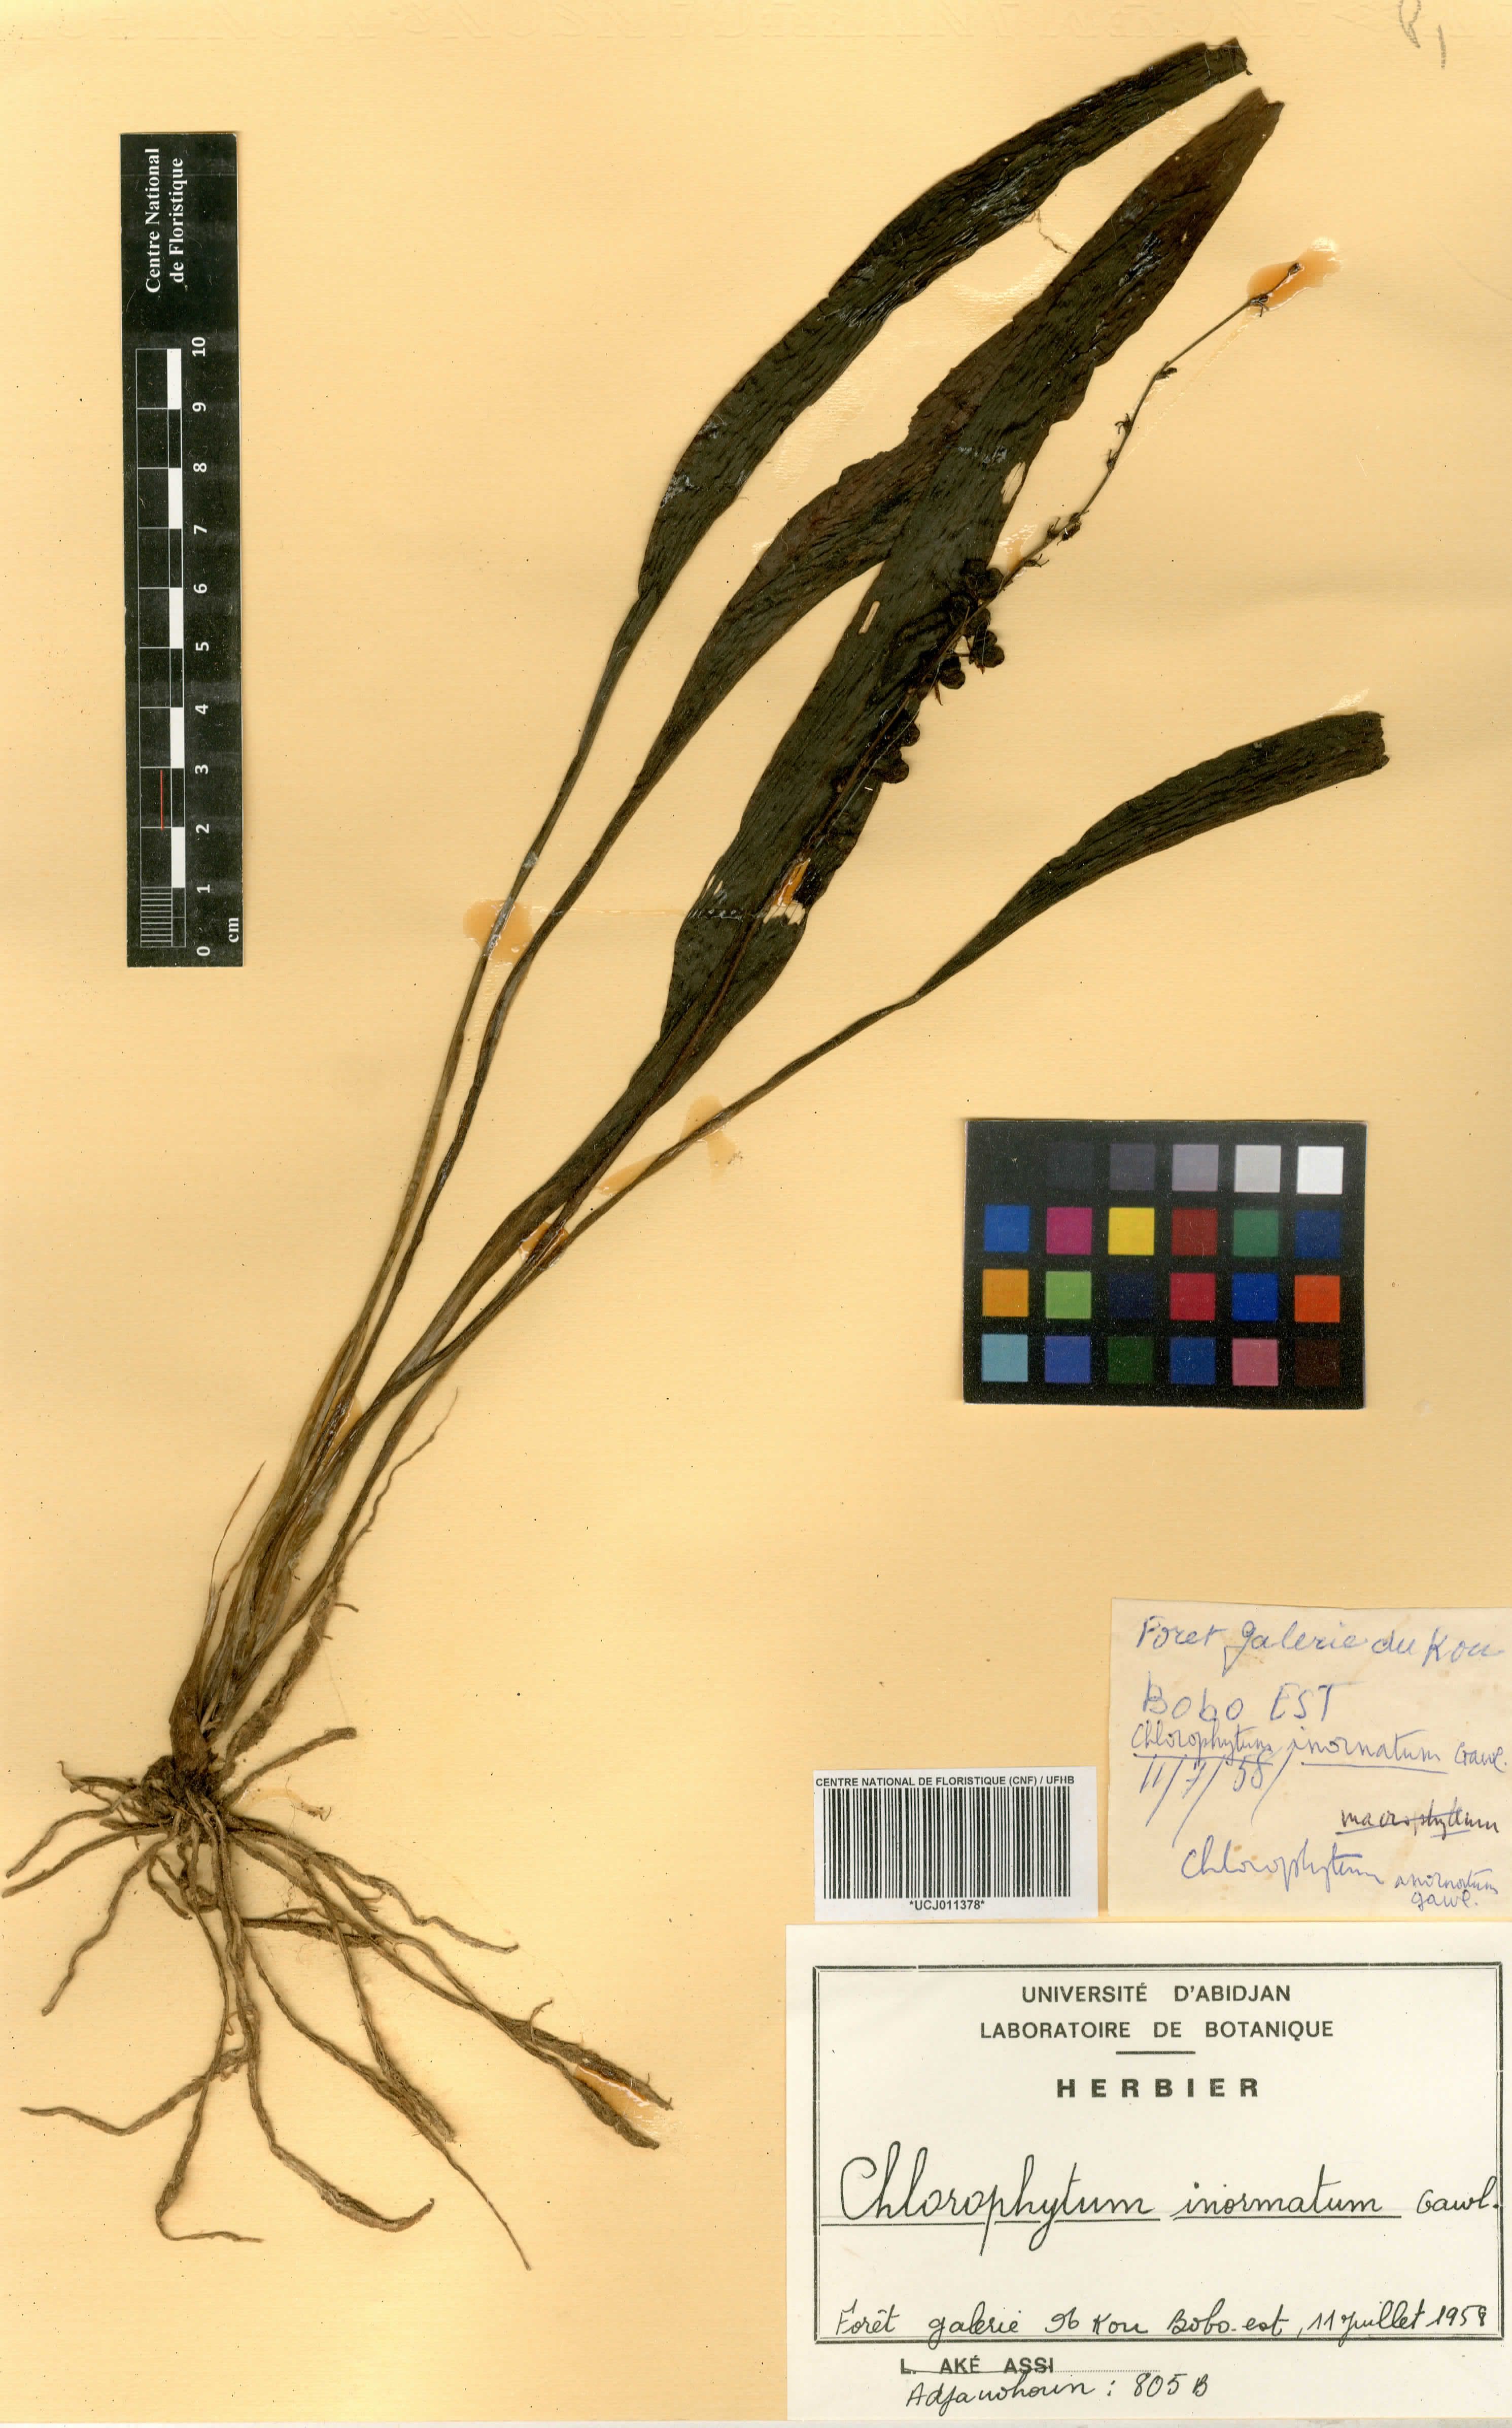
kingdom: Plantae
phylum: Tracheophyta
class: Liliopsida
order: Asparagales
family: Asparagaceae
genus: Chlorophytum
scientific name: Chlorophytum inornatum
